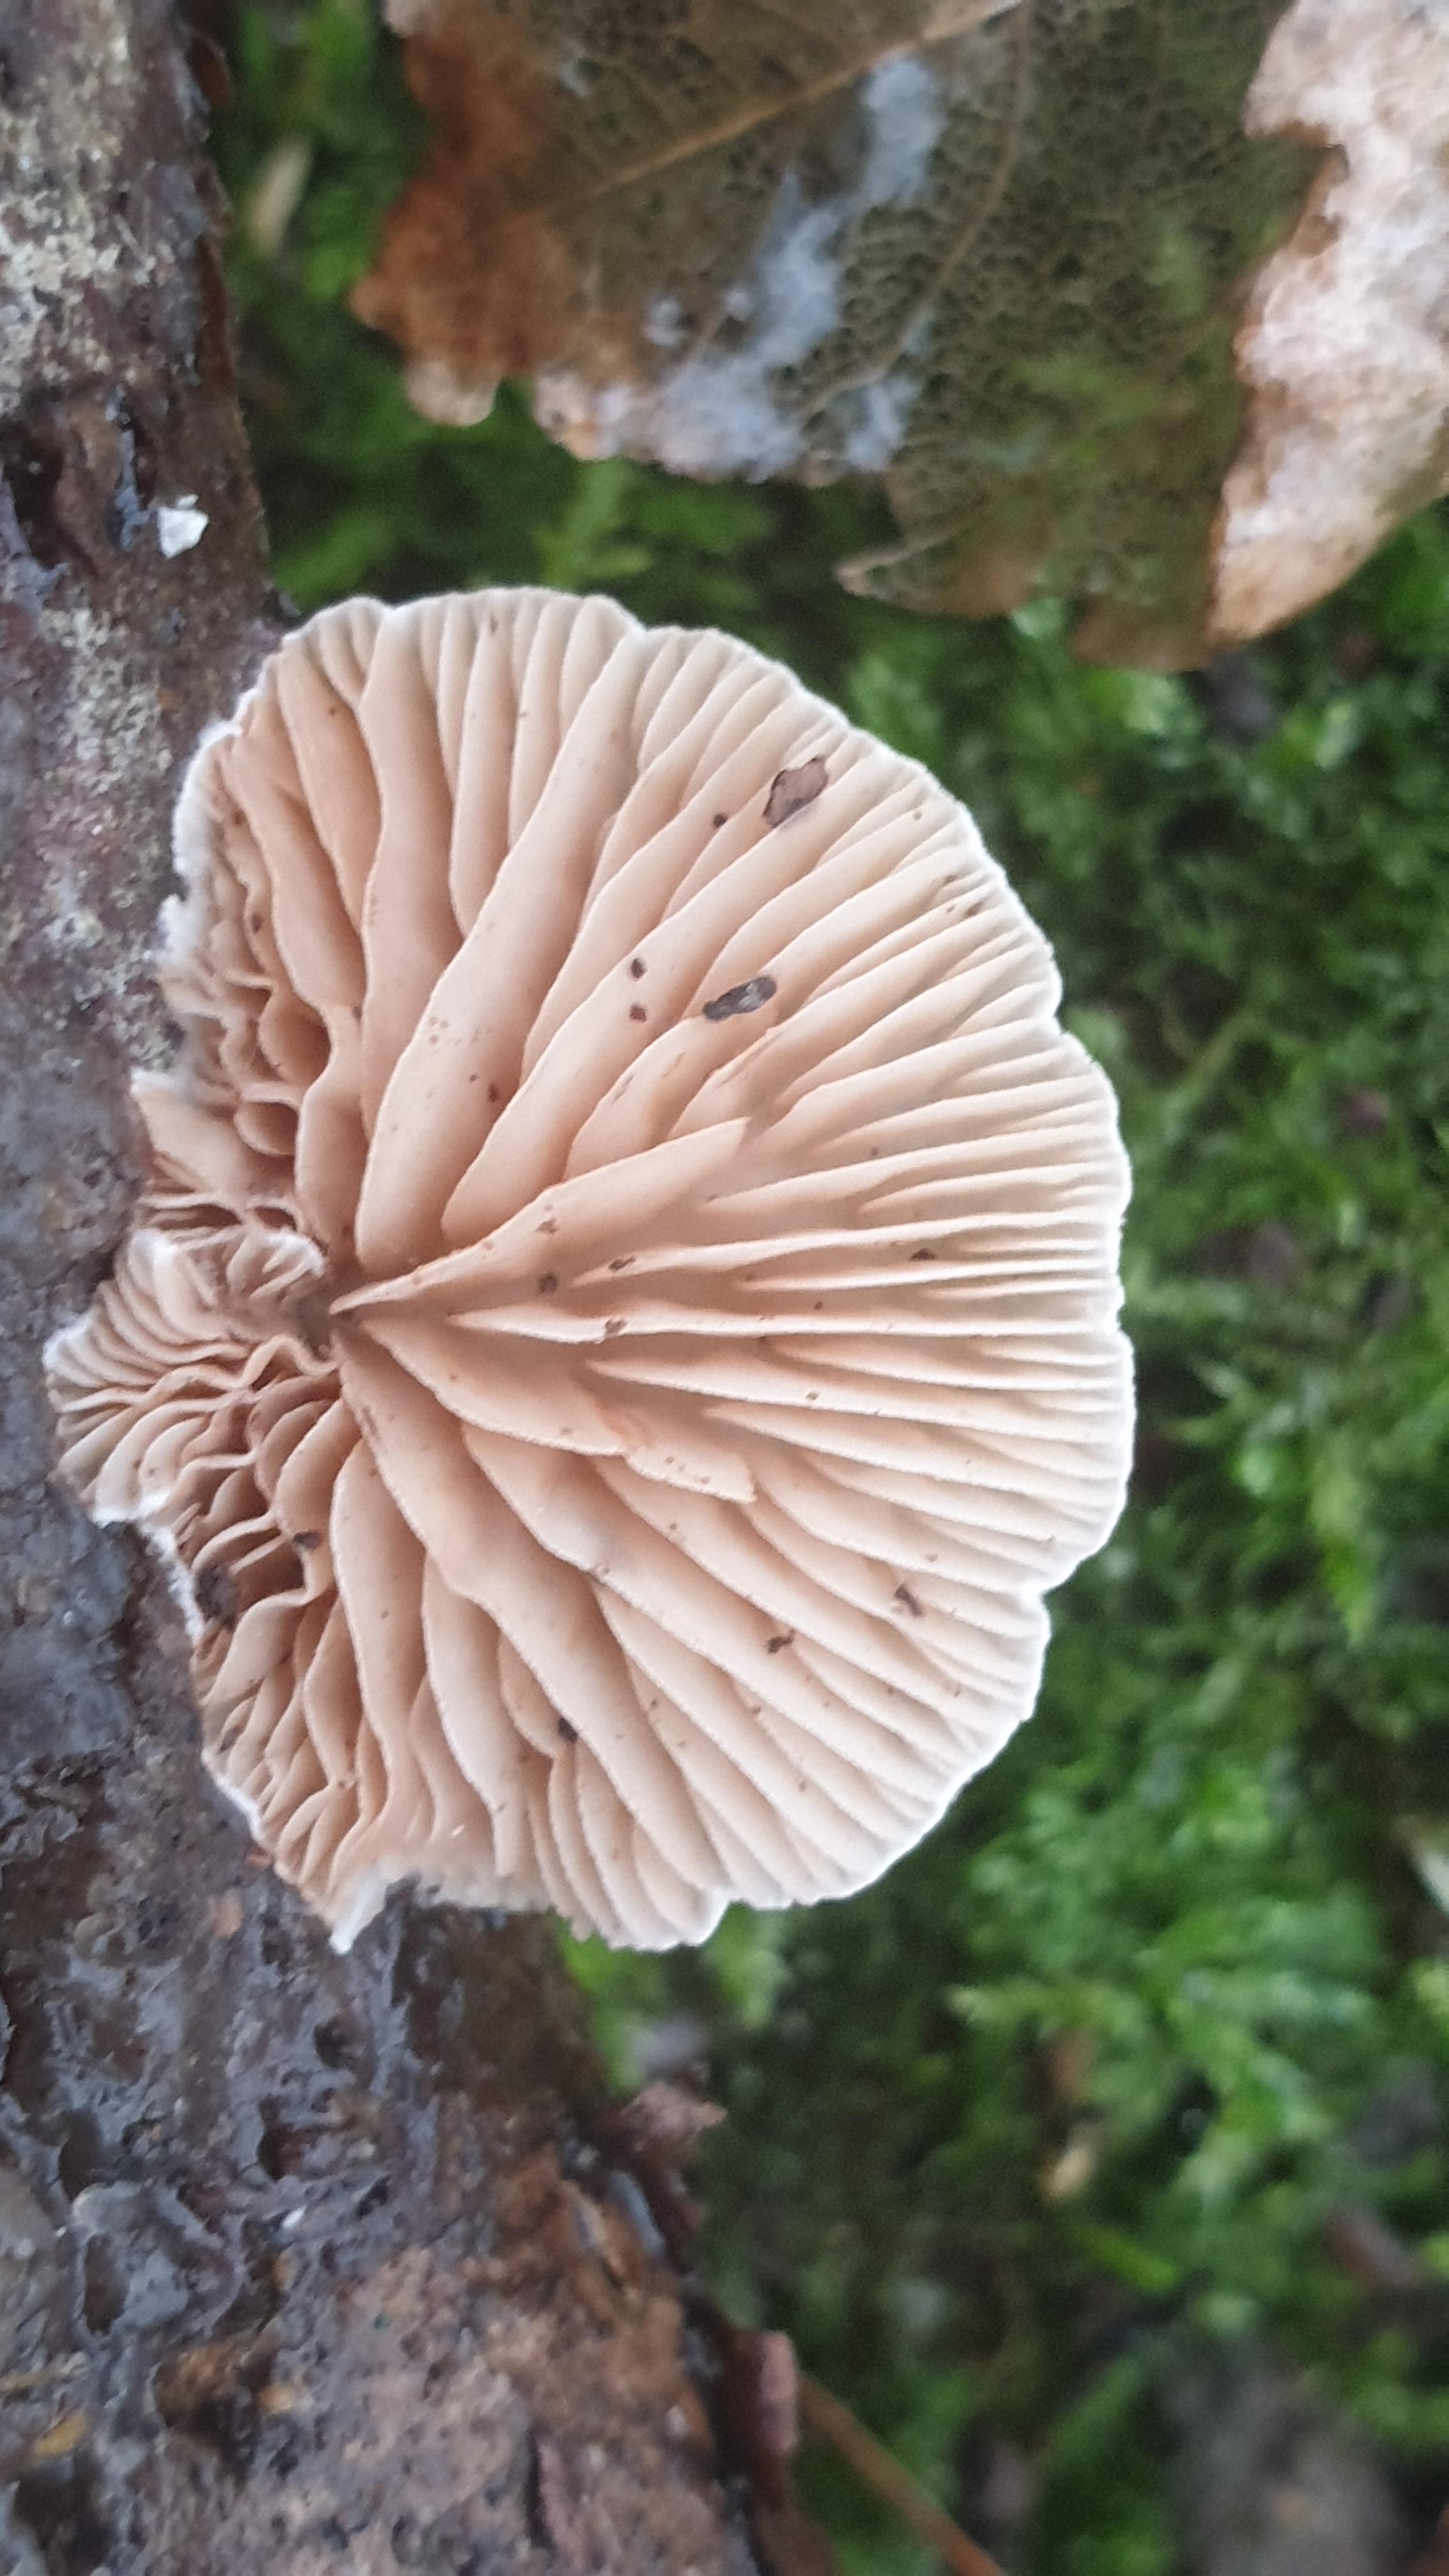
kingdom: Fungi
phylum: Basidiomycota
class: Agaricomycetes
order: Agaricales
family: Crepidotaceae
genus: Crepidotus
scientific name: Crepidotus cesatii
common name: almindelig muslingesvamp
